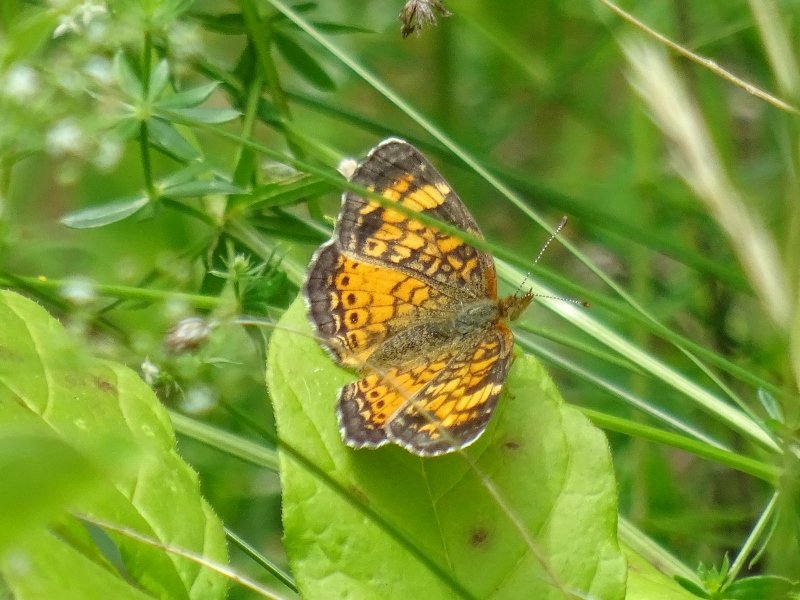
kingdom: Animalia
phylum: Arthropoda
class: Insecta
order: Lepidoptera
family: Nymphalidae
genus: Phyciodes
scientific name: Phyciodes tharos
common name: Northern Crescent
